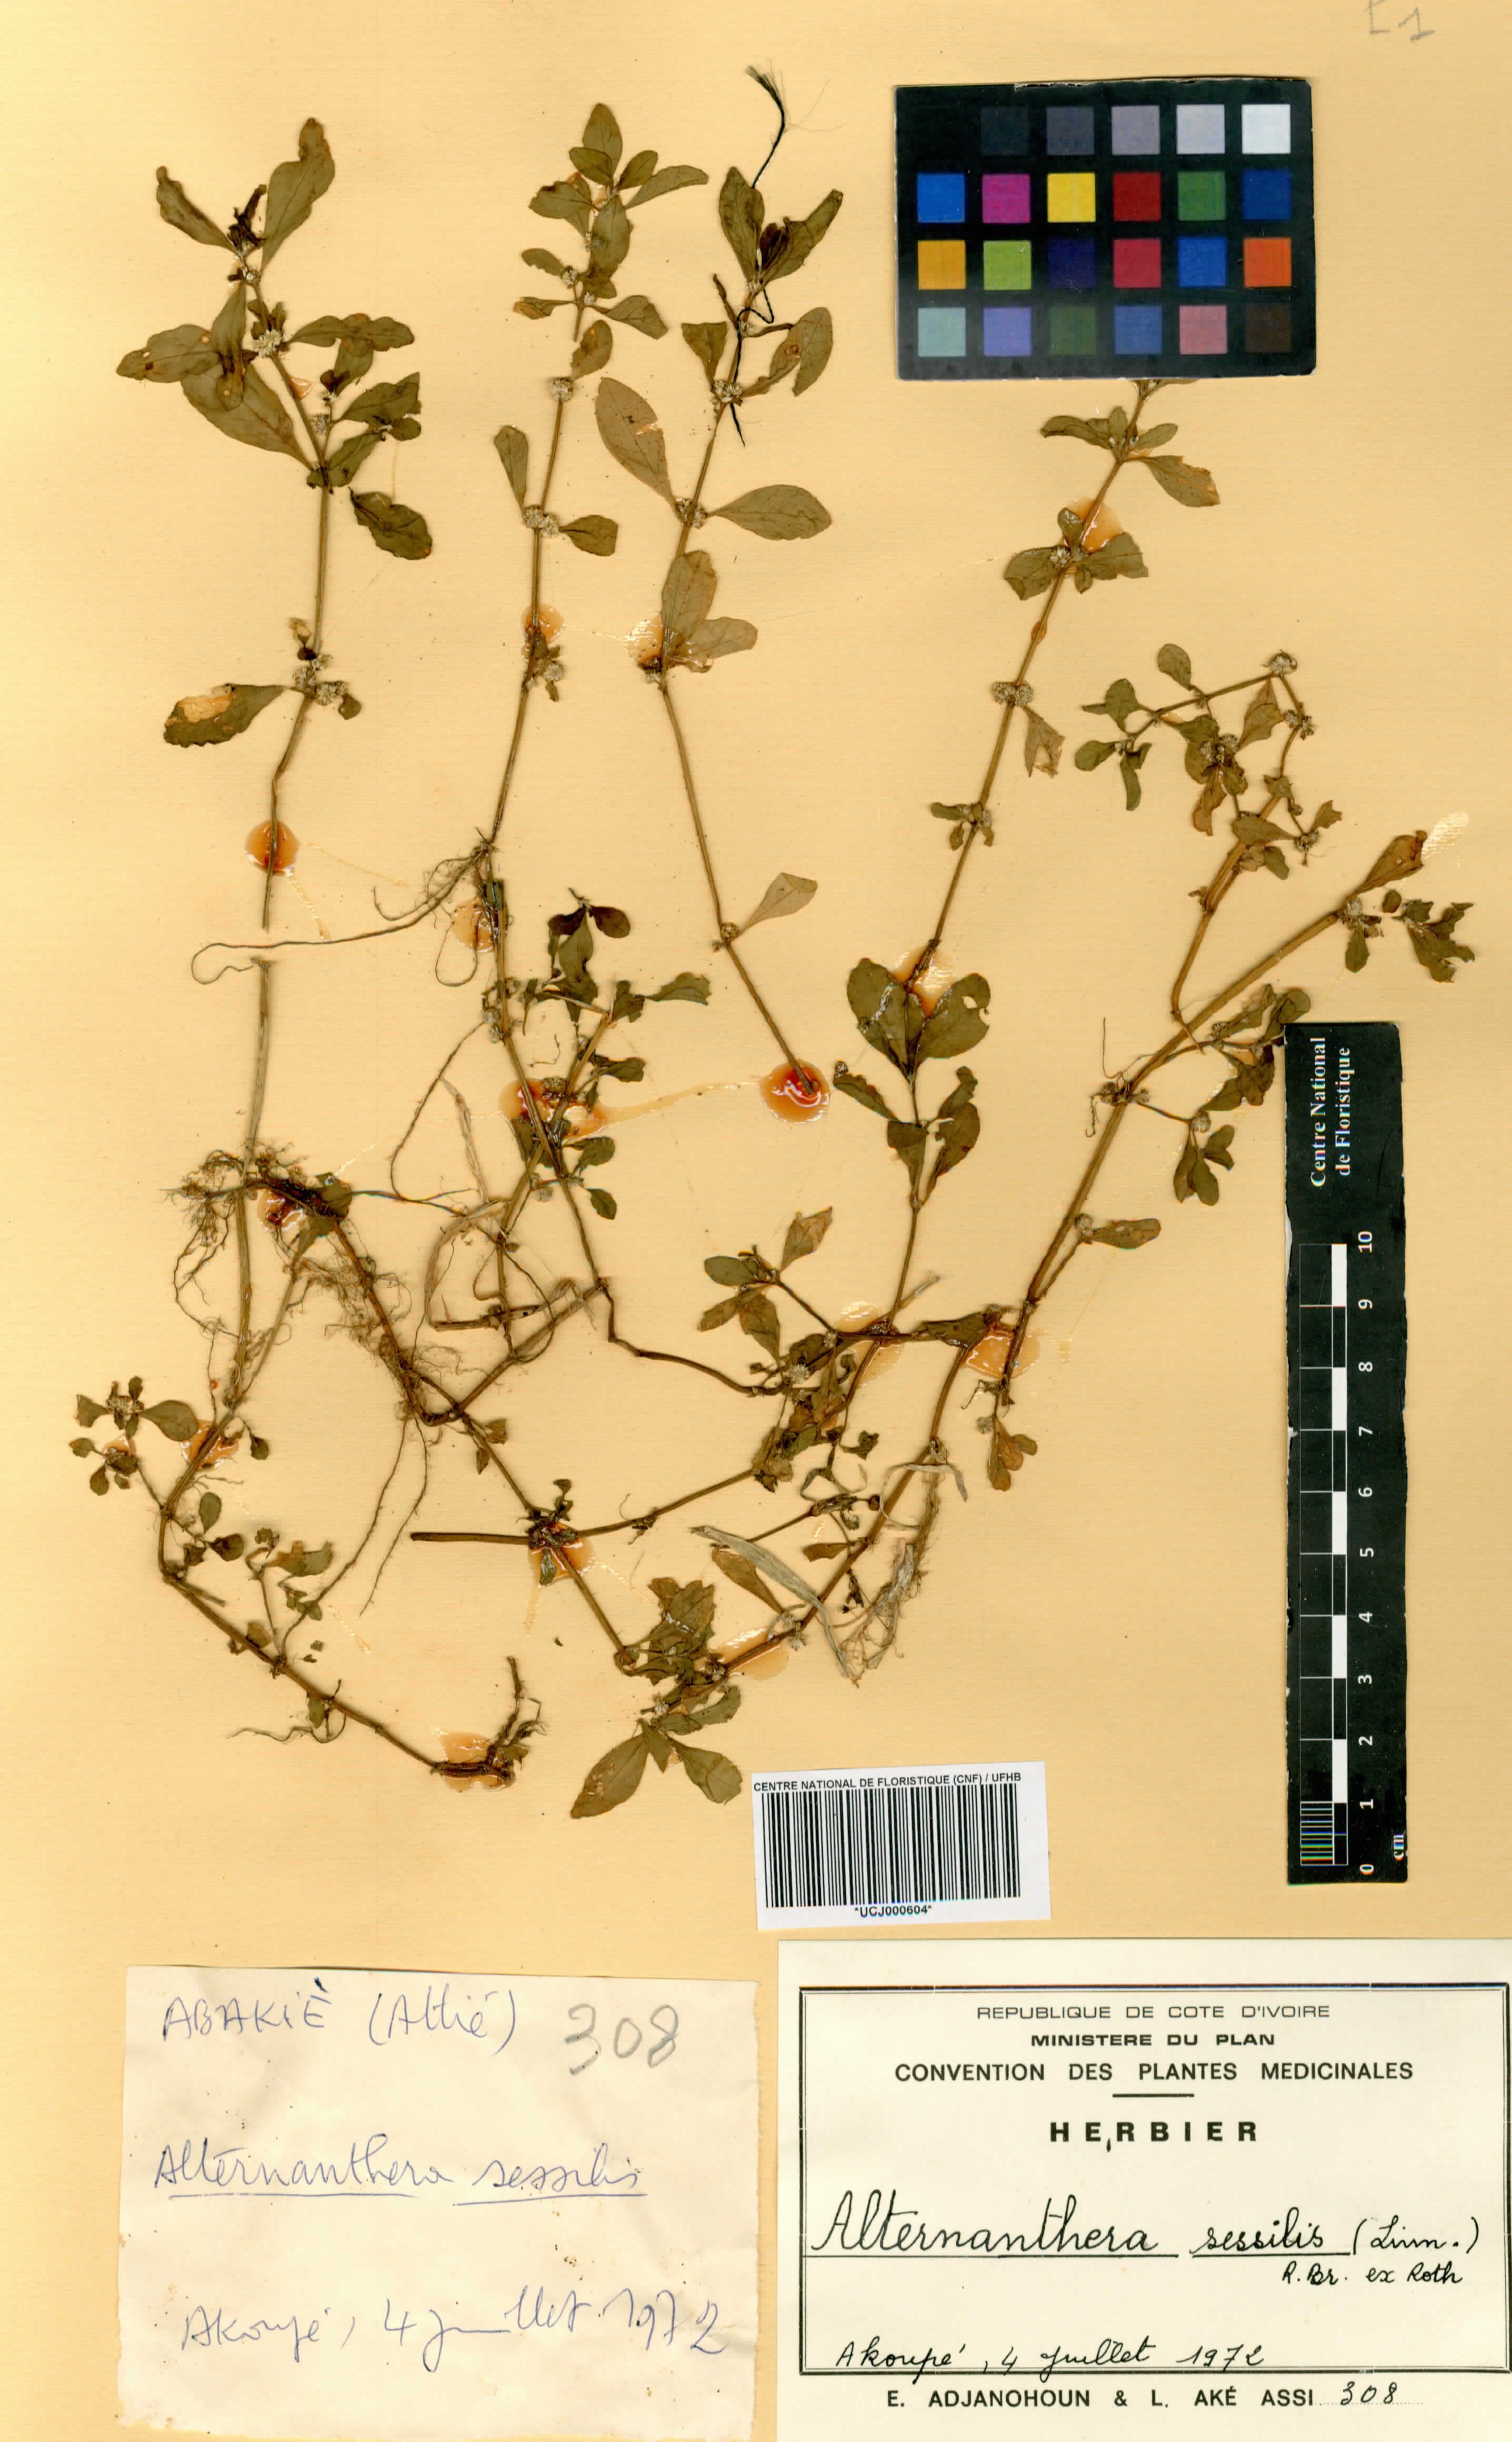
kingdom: Plantae
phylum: Tracheophyta
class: Magnoliopsida
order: Caryophyllales
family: Amaranthaceae
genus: Alternanthera
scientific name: Alternanthera sessilis
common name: Sessile joyweed
